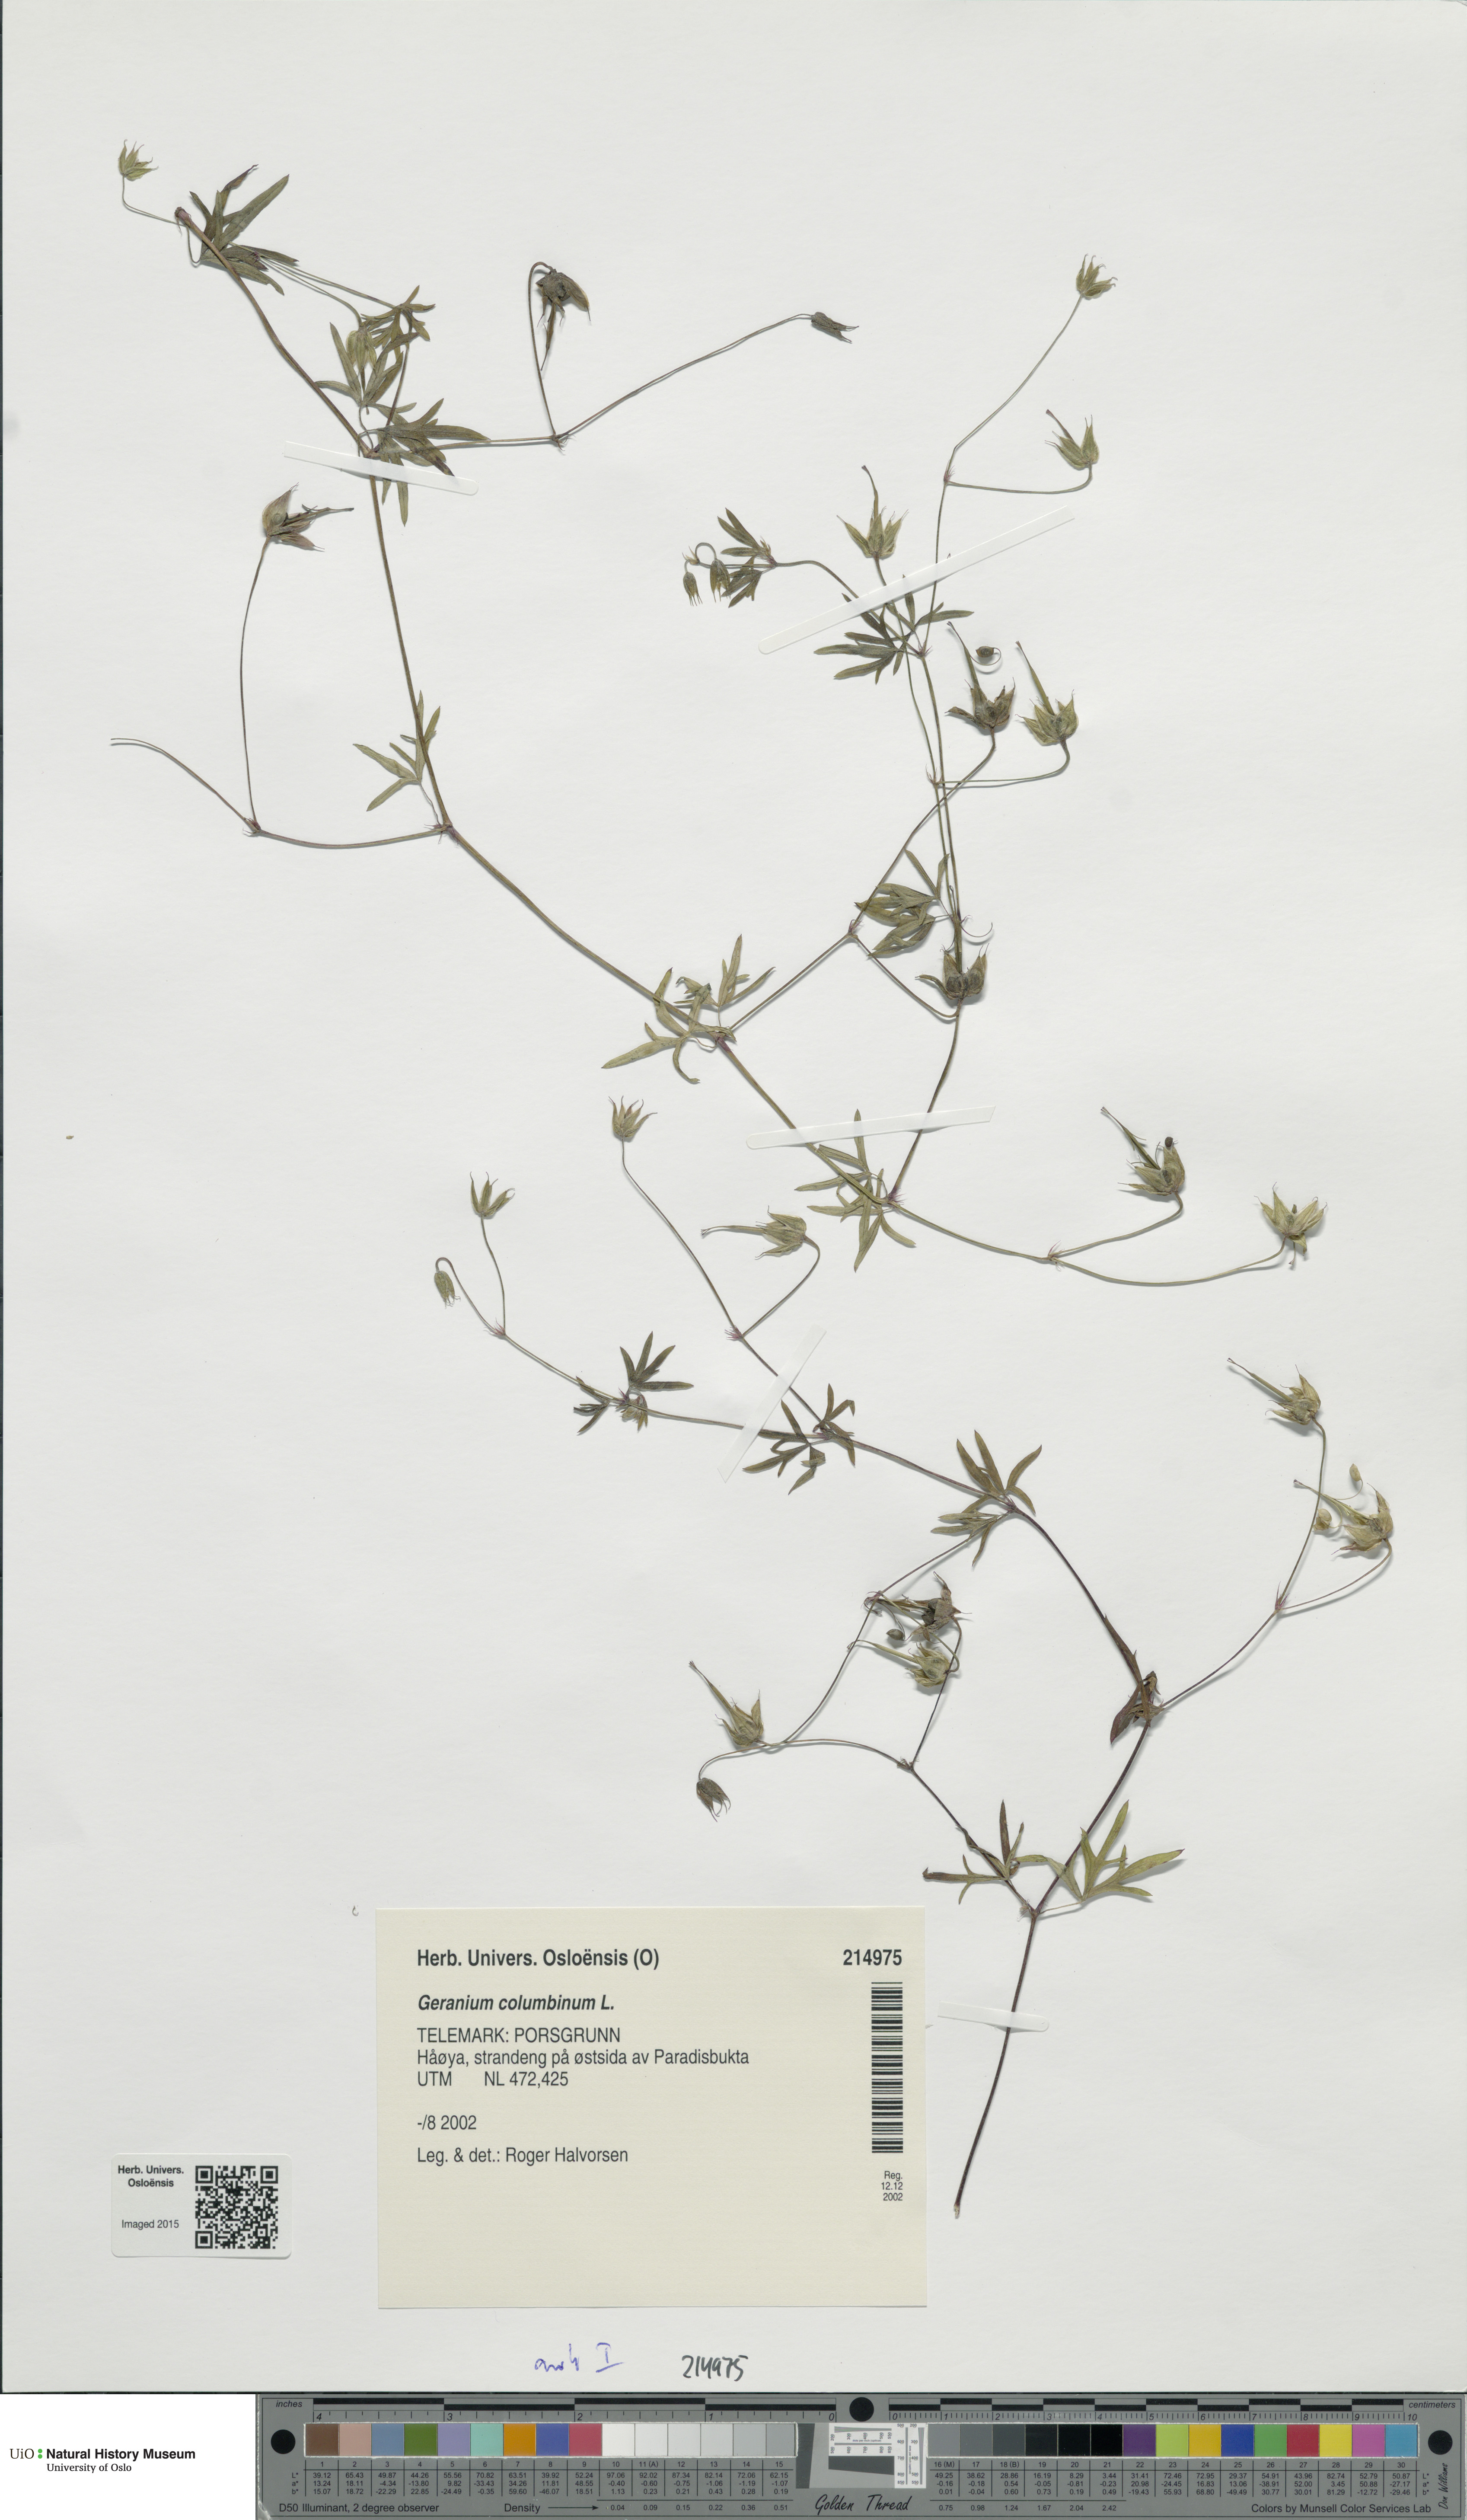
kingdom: Plantae
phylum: Tracheophyta
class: Magnoliopsida
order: Geraniales
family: Geraniaceae
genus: Geranium
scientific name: Geranium columbinum
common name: Long-stalked crane's-bill
